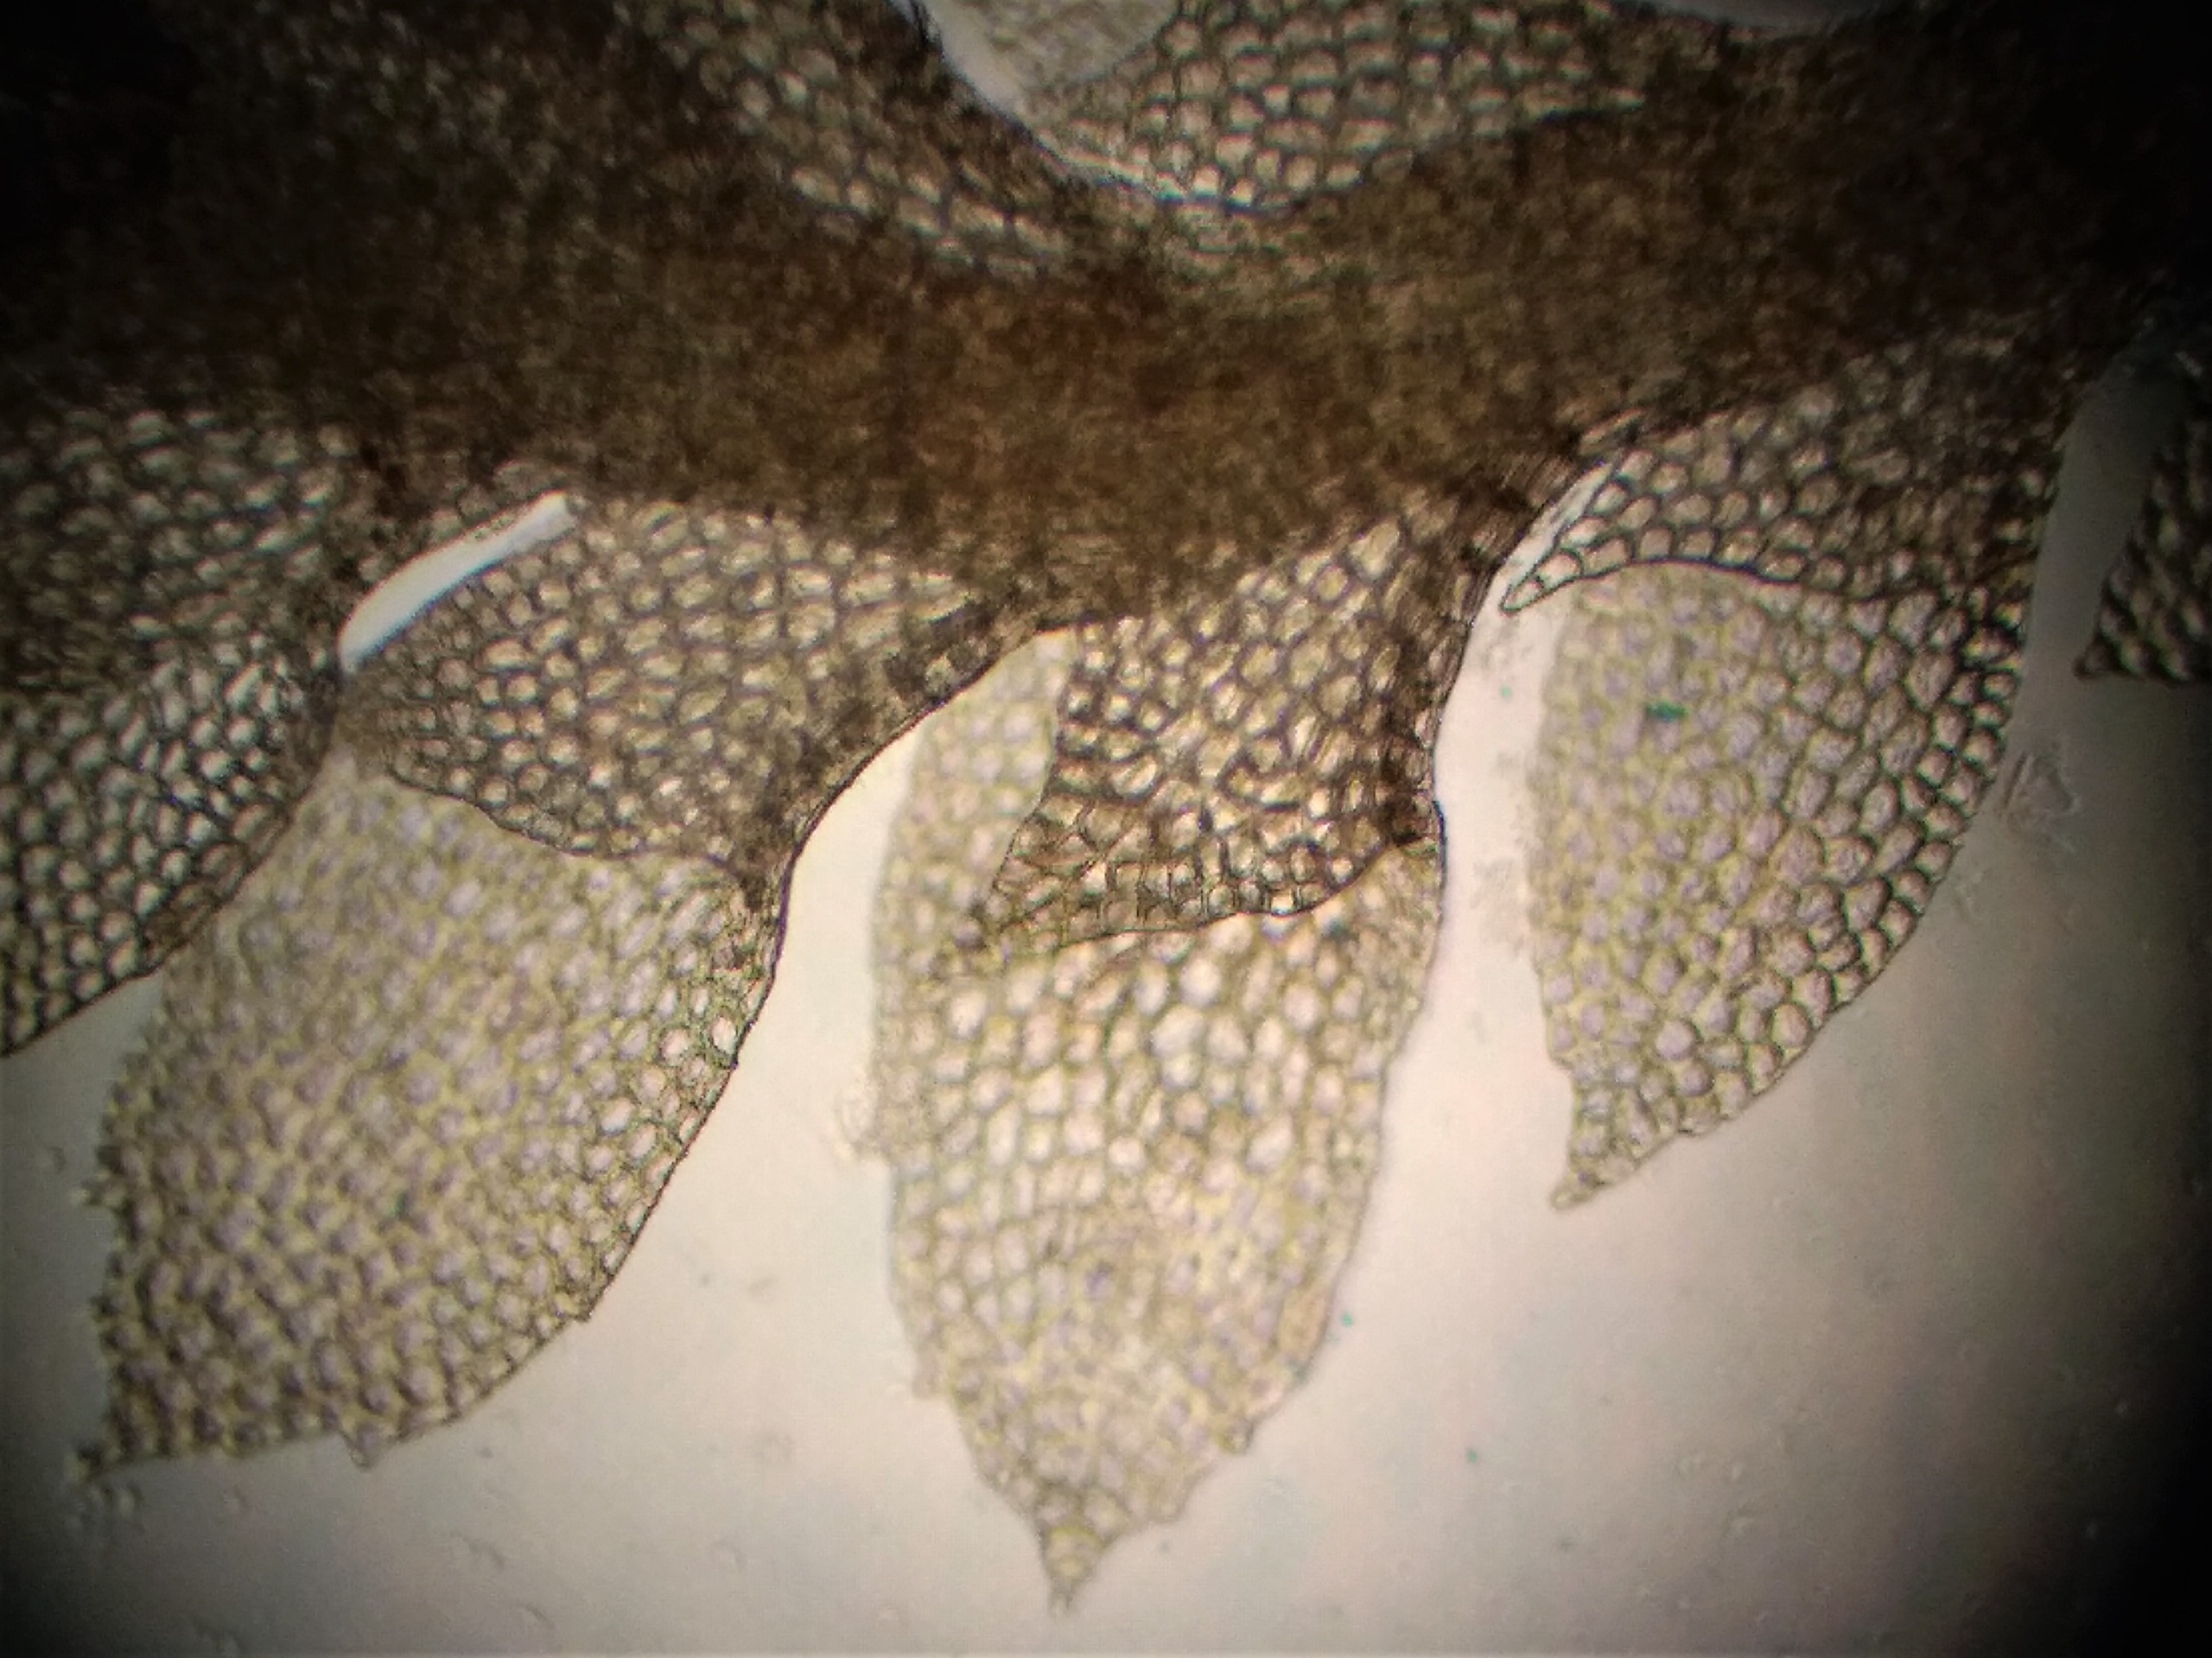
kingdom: Plantae
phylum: Marchantiophyta
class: Jungermanniopsida
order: Jungermanniales
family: Scapaniaceae
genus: Scapania
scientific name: Scapania umbrosa
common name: Hvidgrøn tveblad
